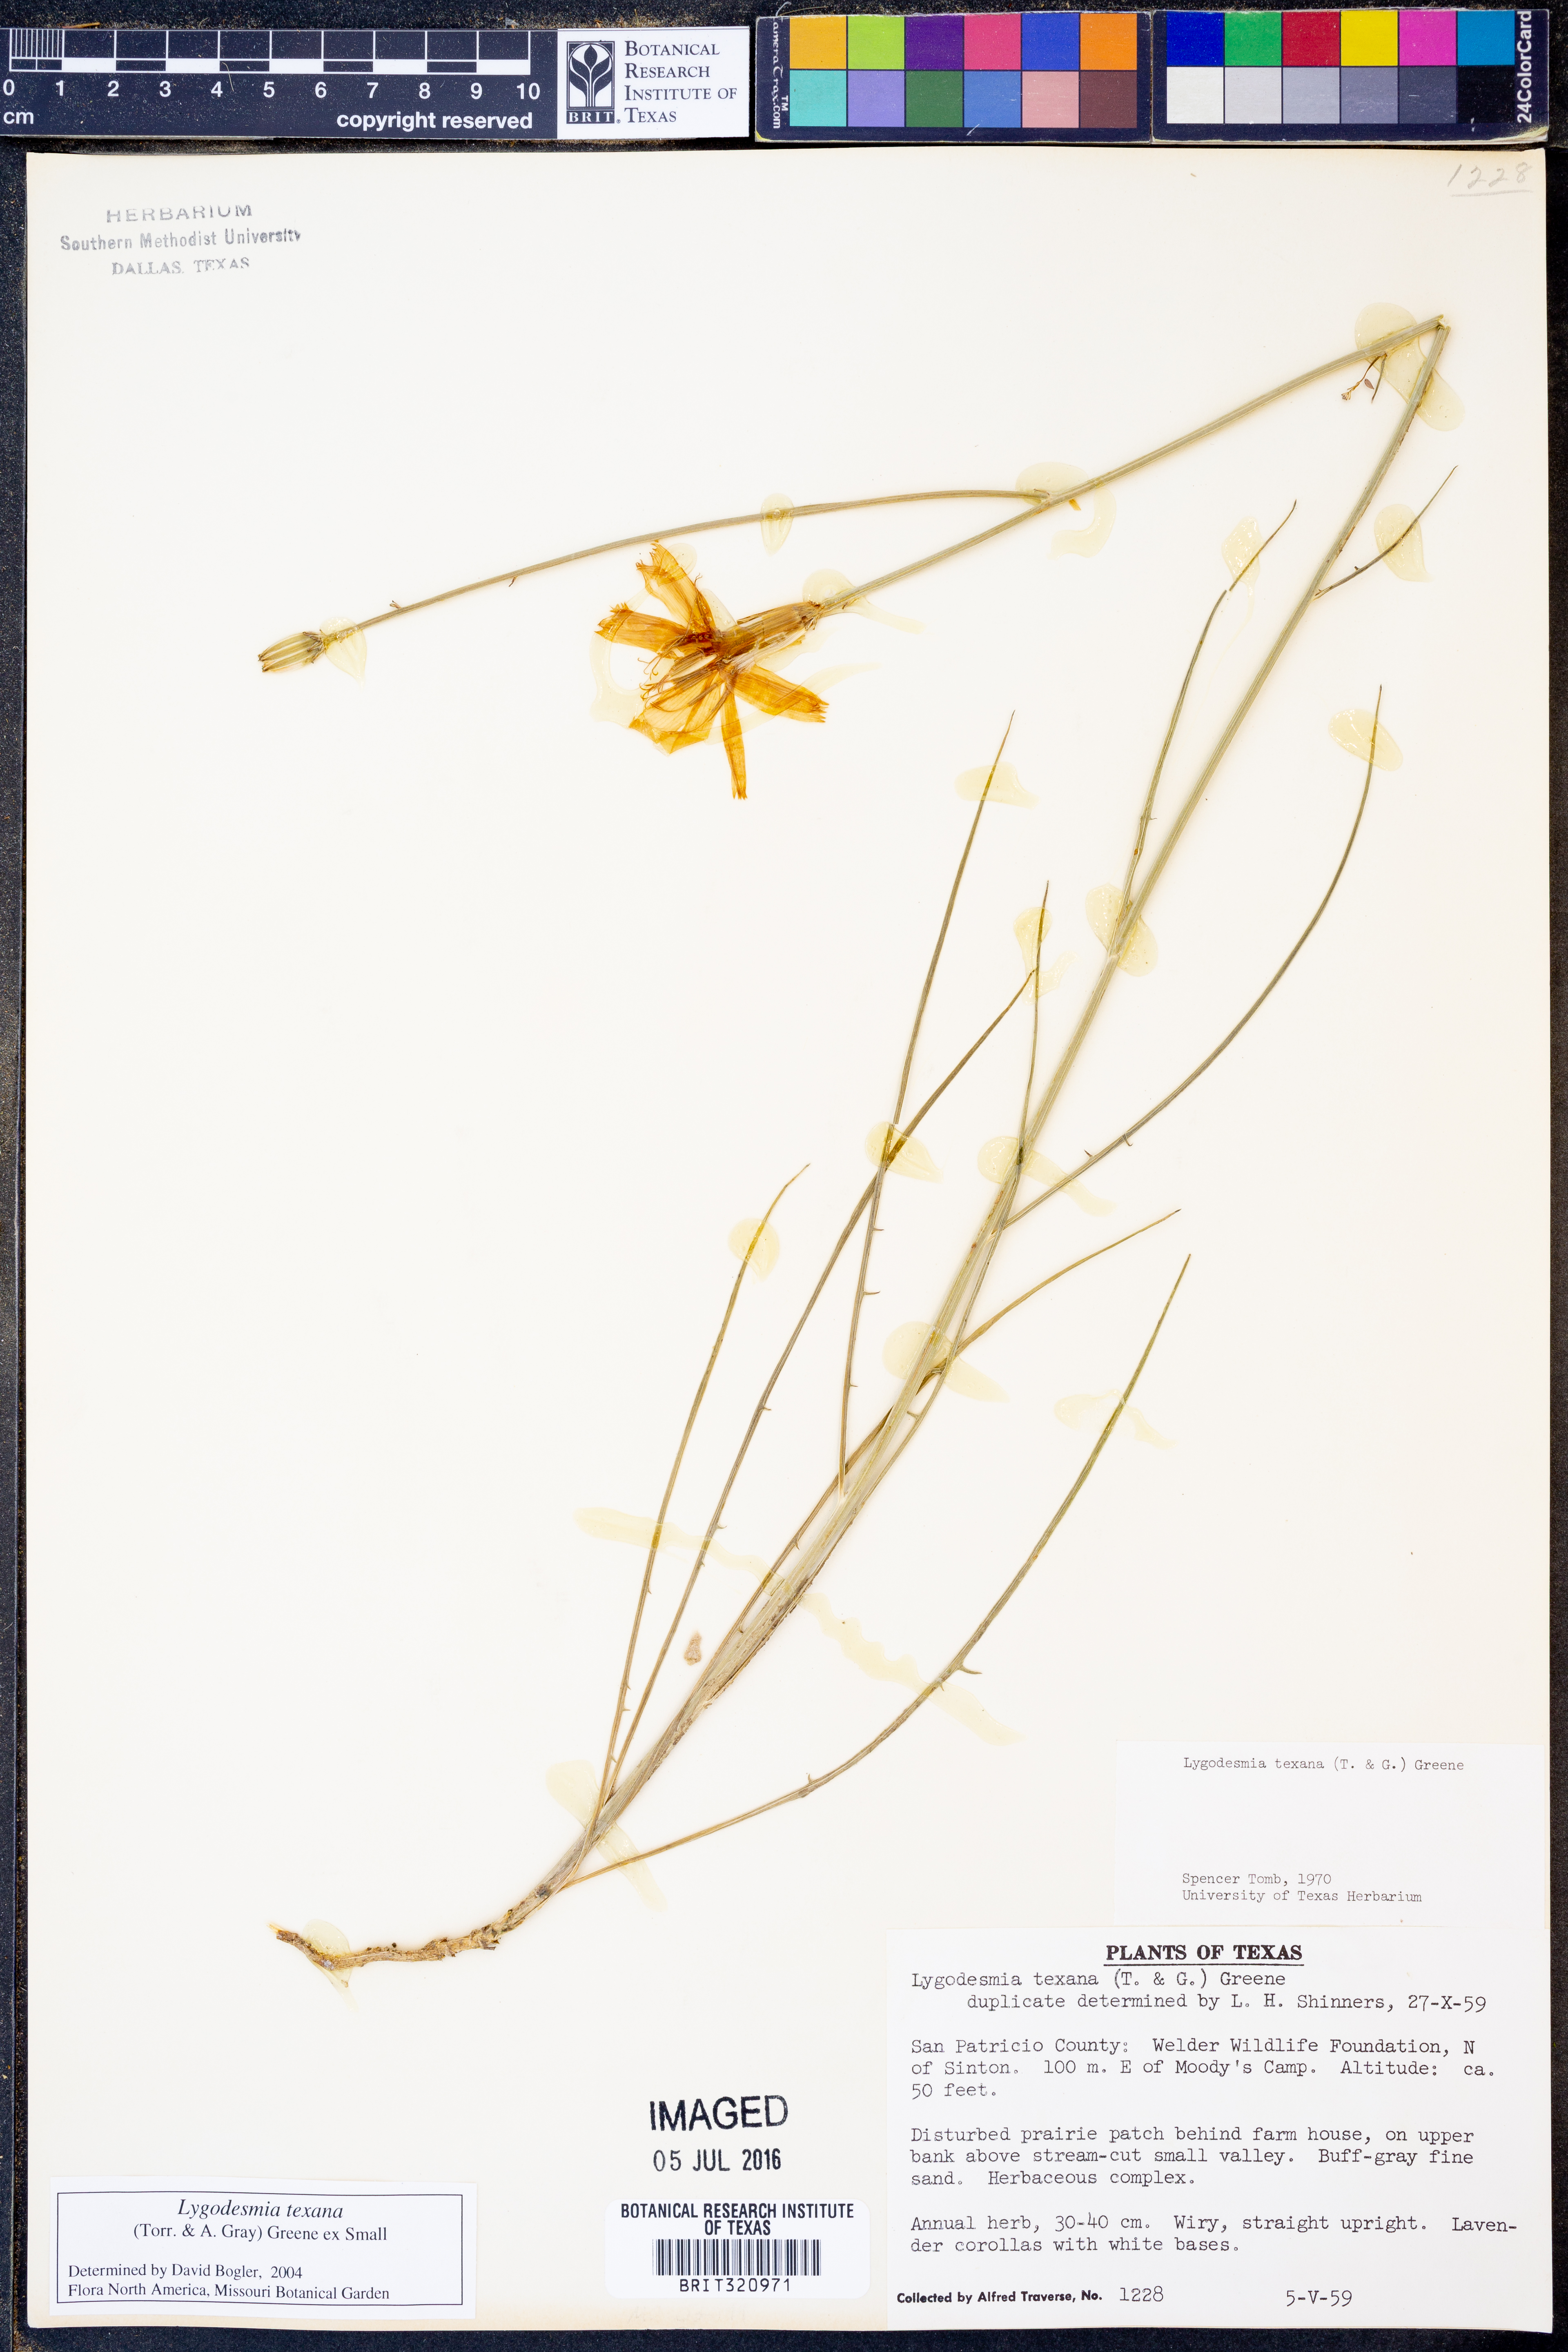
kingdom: Plantae
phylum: Tracheophyta
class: Magnoliopsida
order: Asterales
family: Asteraceae
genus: Lygodesmia
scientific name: Lygodesmia texana
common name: Texas skeleton-plant
